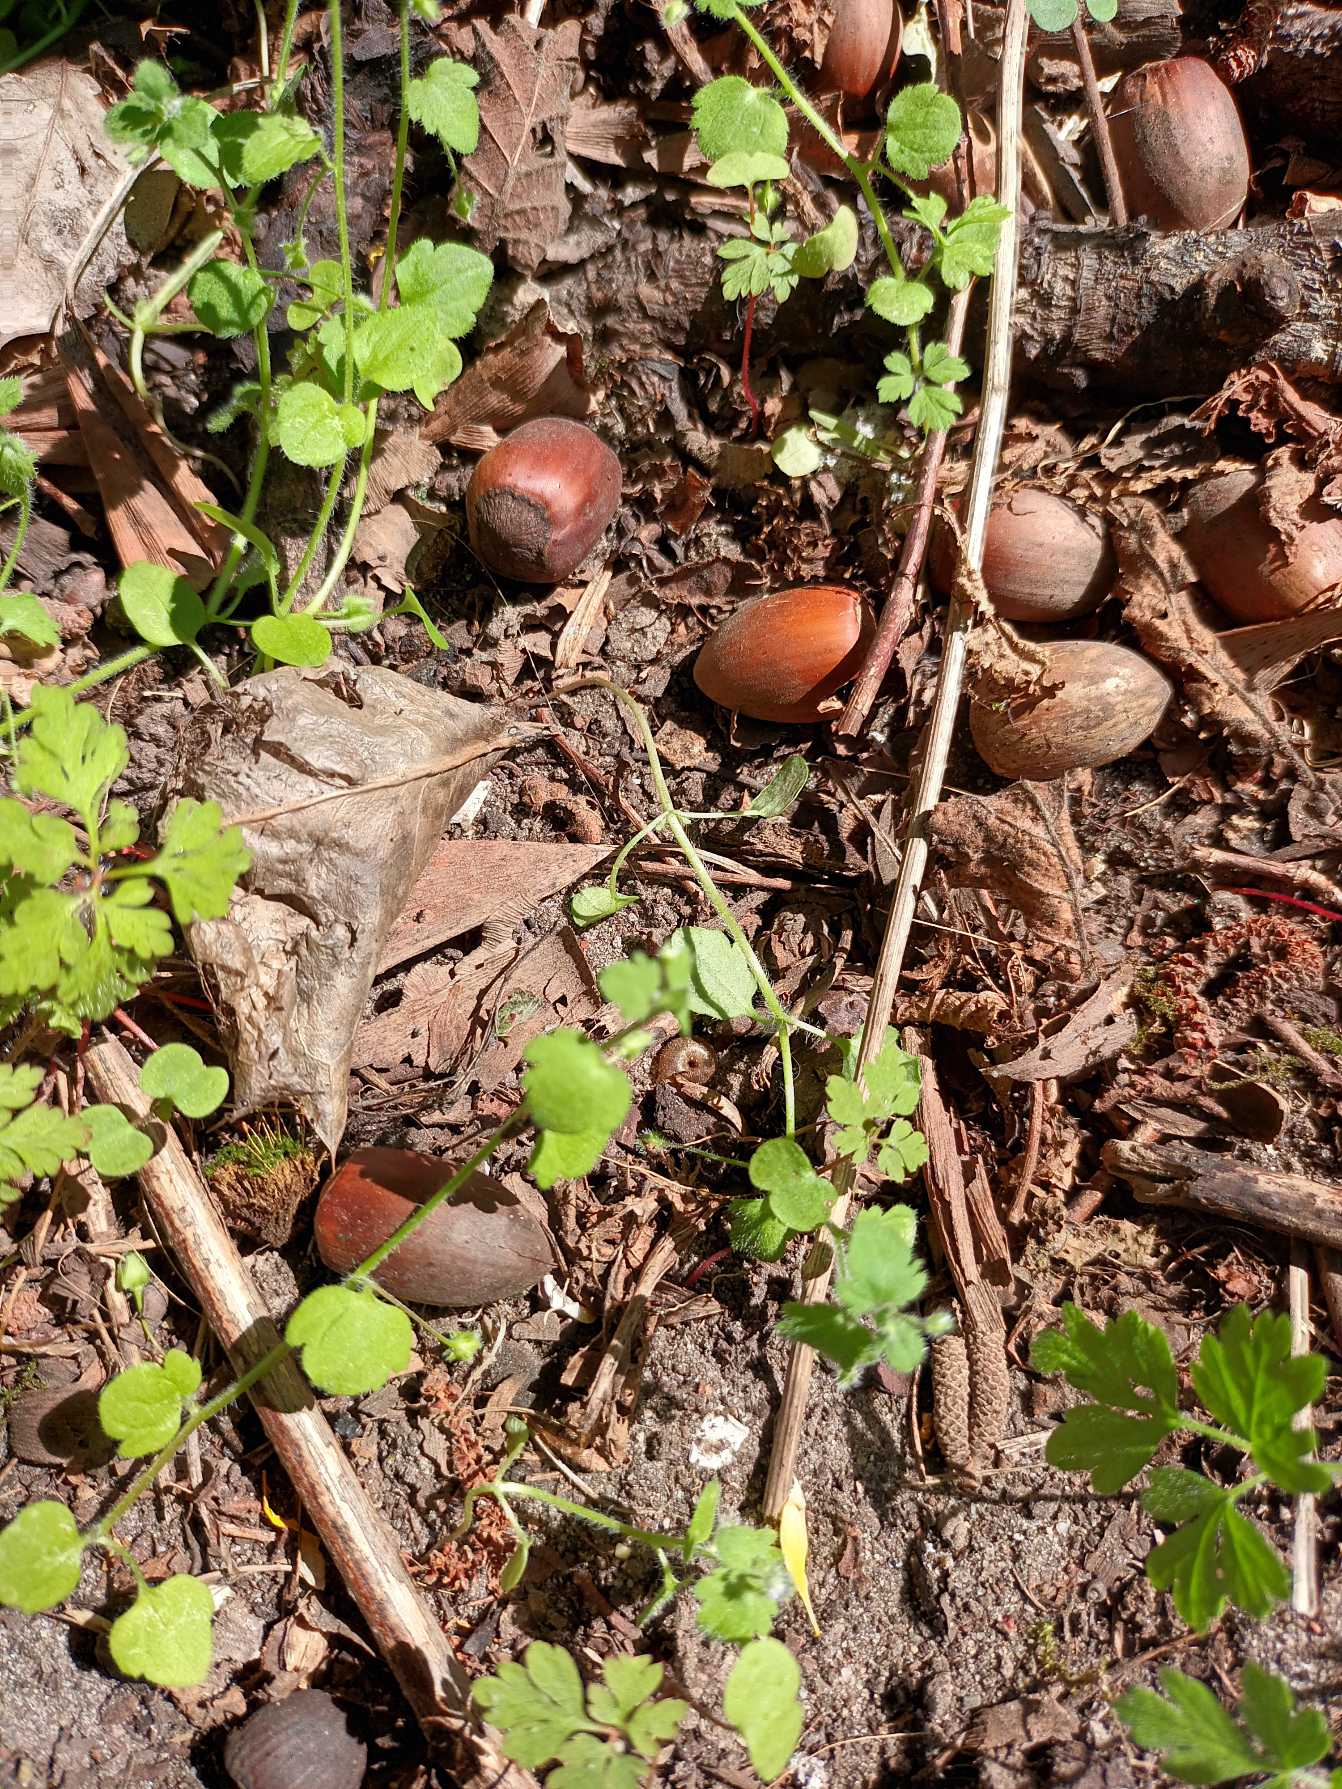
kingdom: Plantae
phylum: Tracheophyta
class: Magnoliopsida
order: Lamiales
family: Plantaginaceae
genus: Veronica
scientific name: Veronica sublobata
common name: Krat-ærenpris
